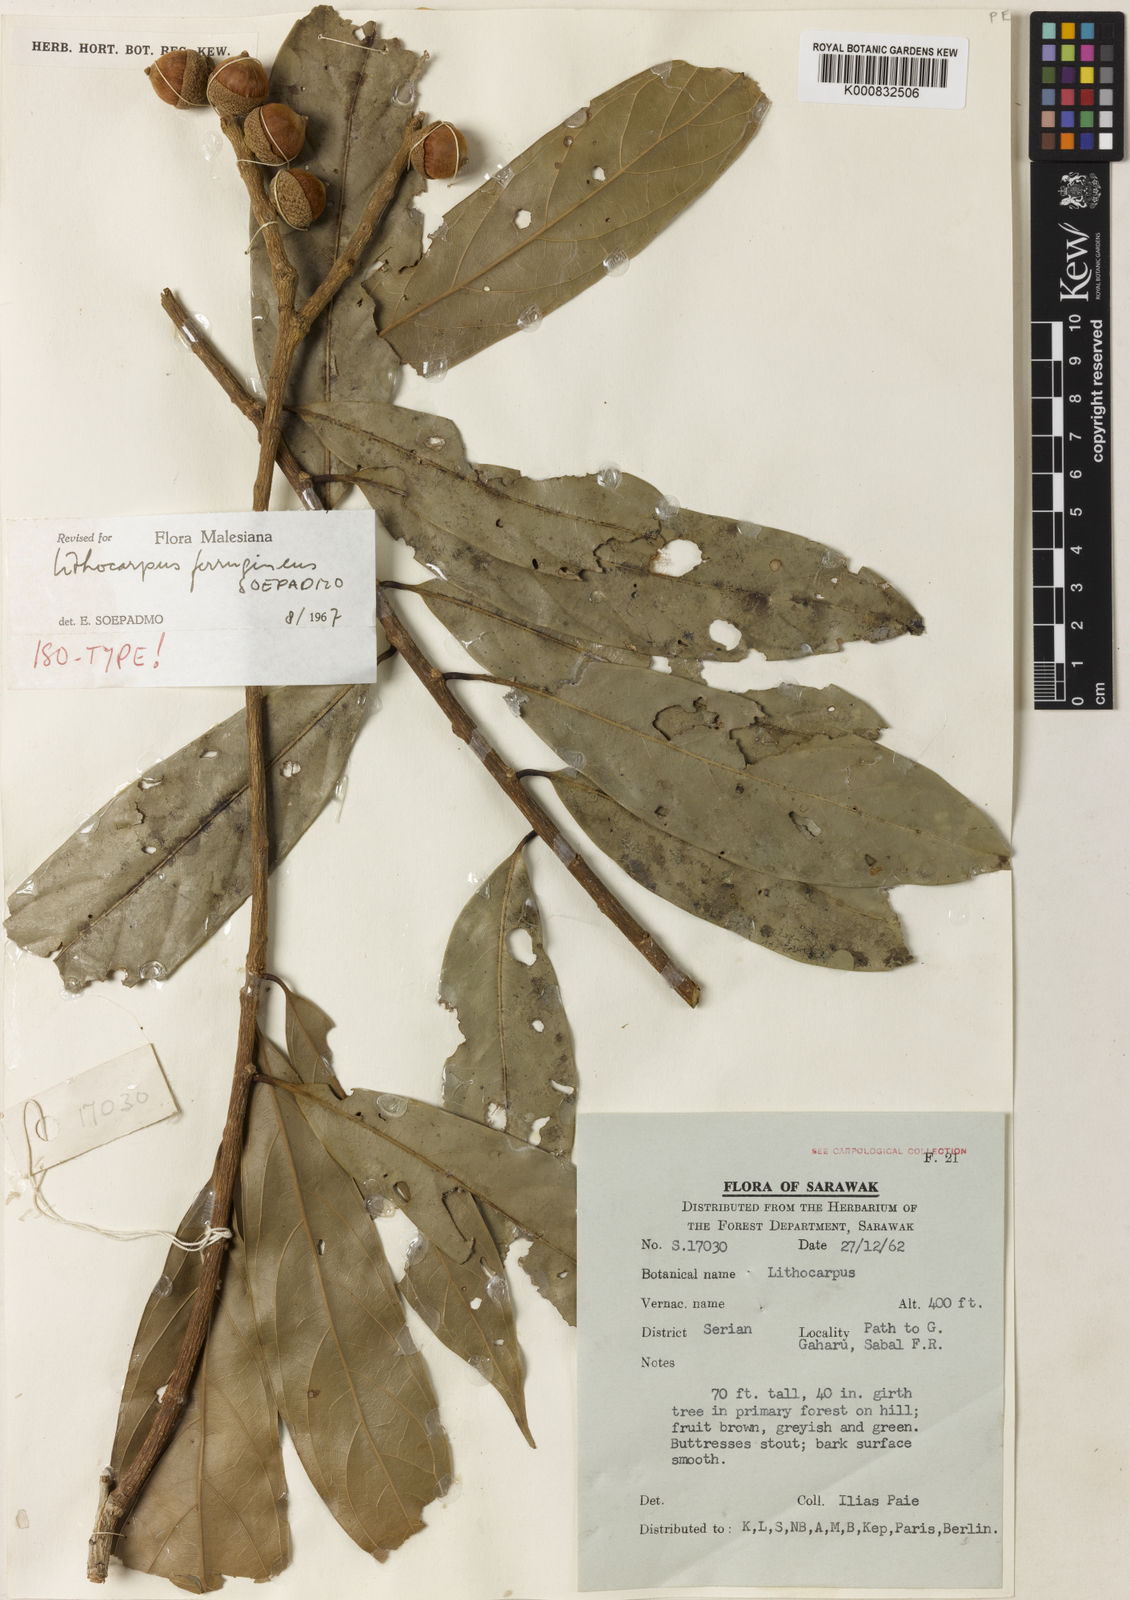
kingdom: Plantae
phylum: Tracheophyta
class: Magnoliopsida
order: Fagales
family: Fagaceae
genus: Lithocarpus
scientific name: Lithocarpus ferrugineus
